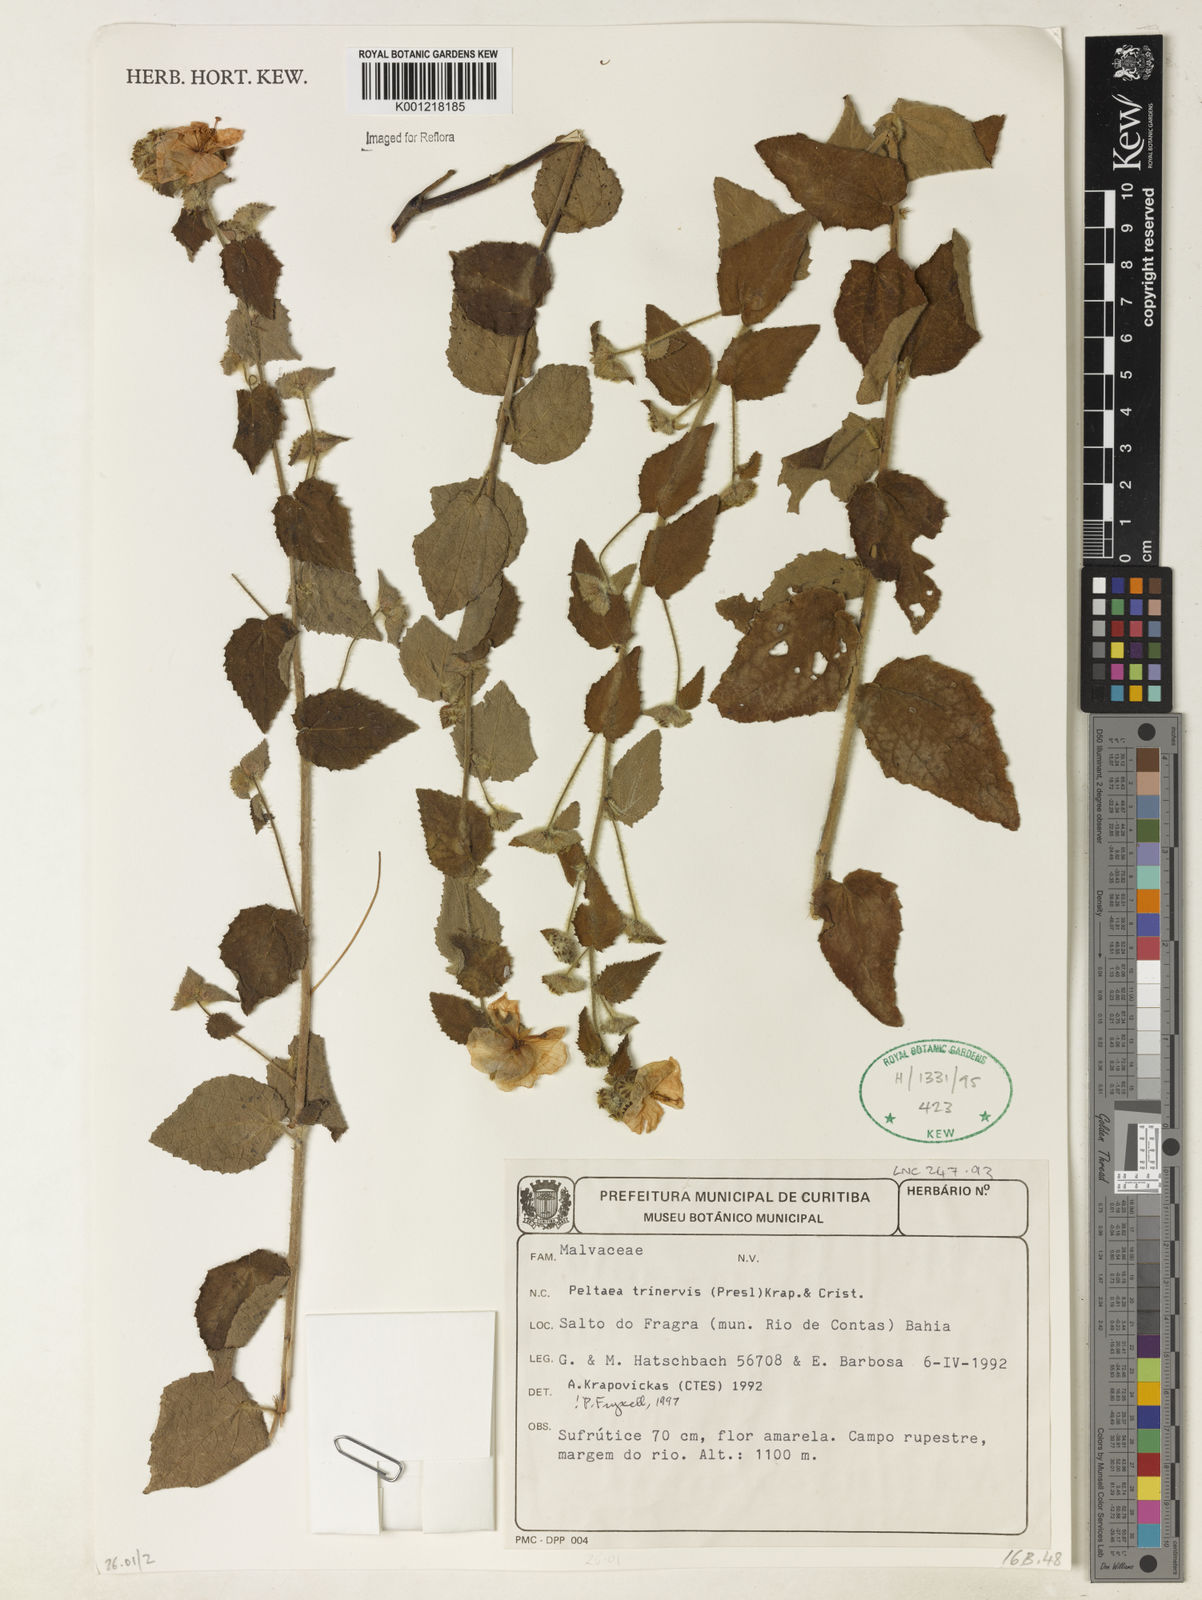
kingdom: Plantae
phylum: Tracheophyta
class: Magnoliopsida
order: Malvales
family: Malvaceae
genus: Peltaea
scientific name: Peltaea
